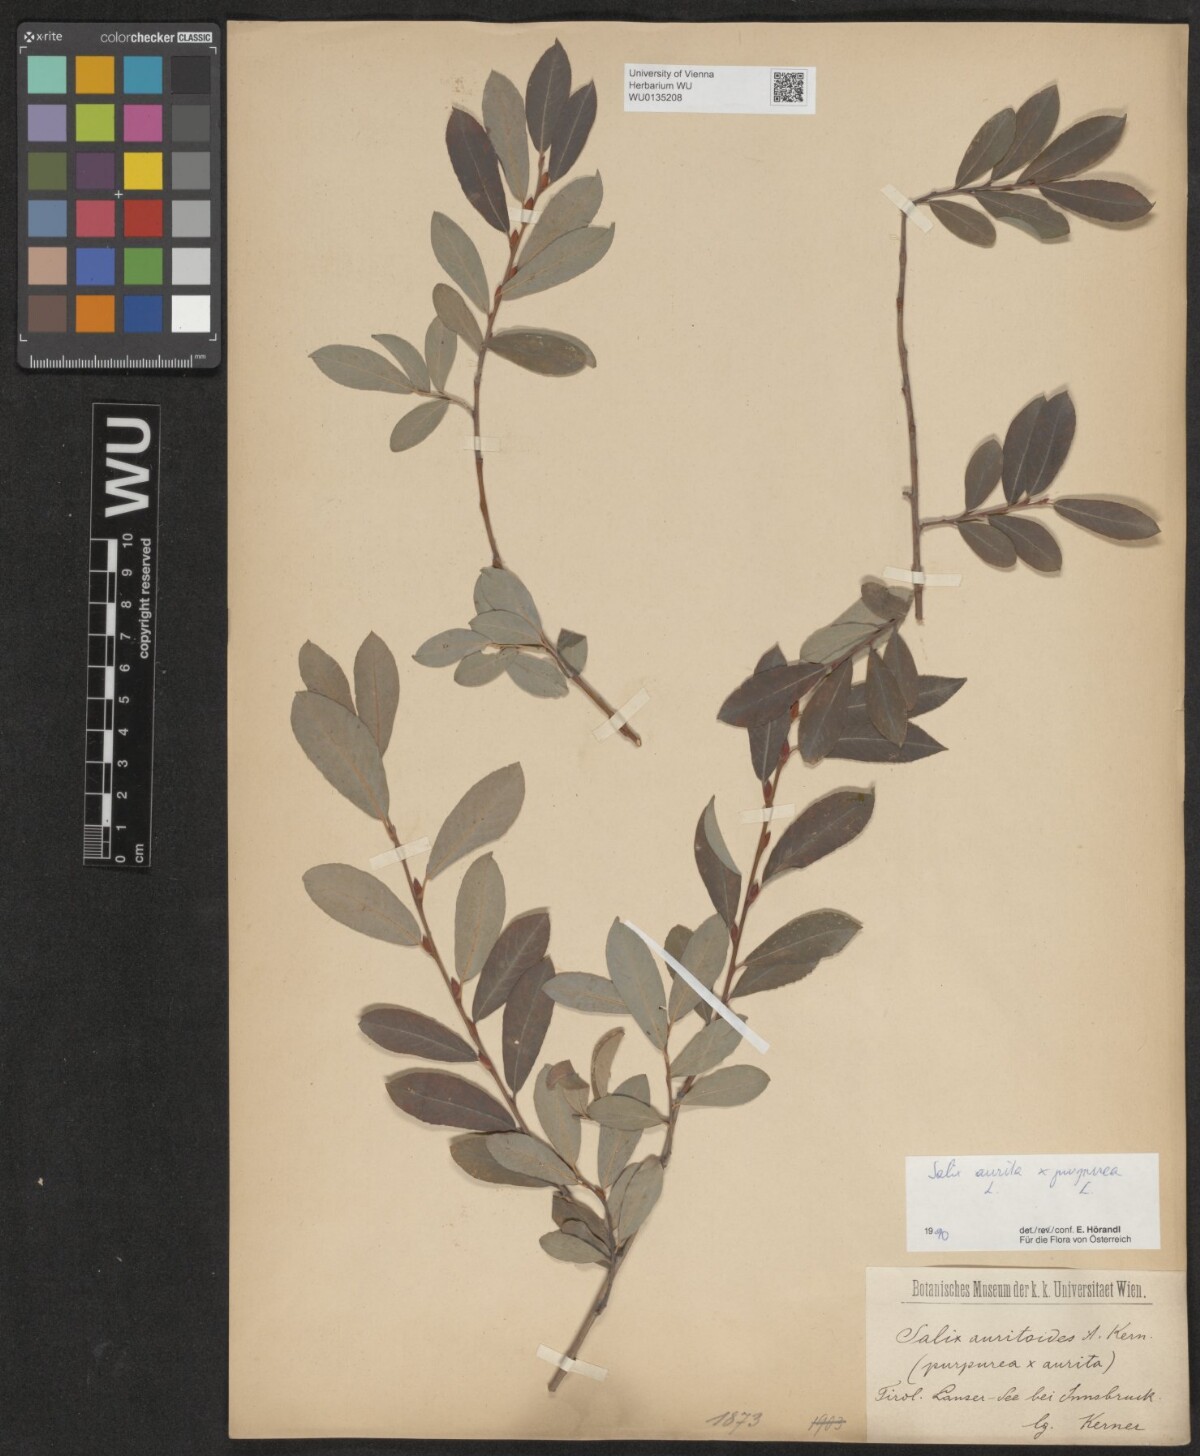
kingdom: Plantae
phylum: Tracheophyta
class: Magnoliopsida
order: Malpighiales
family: Salicaceae
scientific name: Salicaceae
